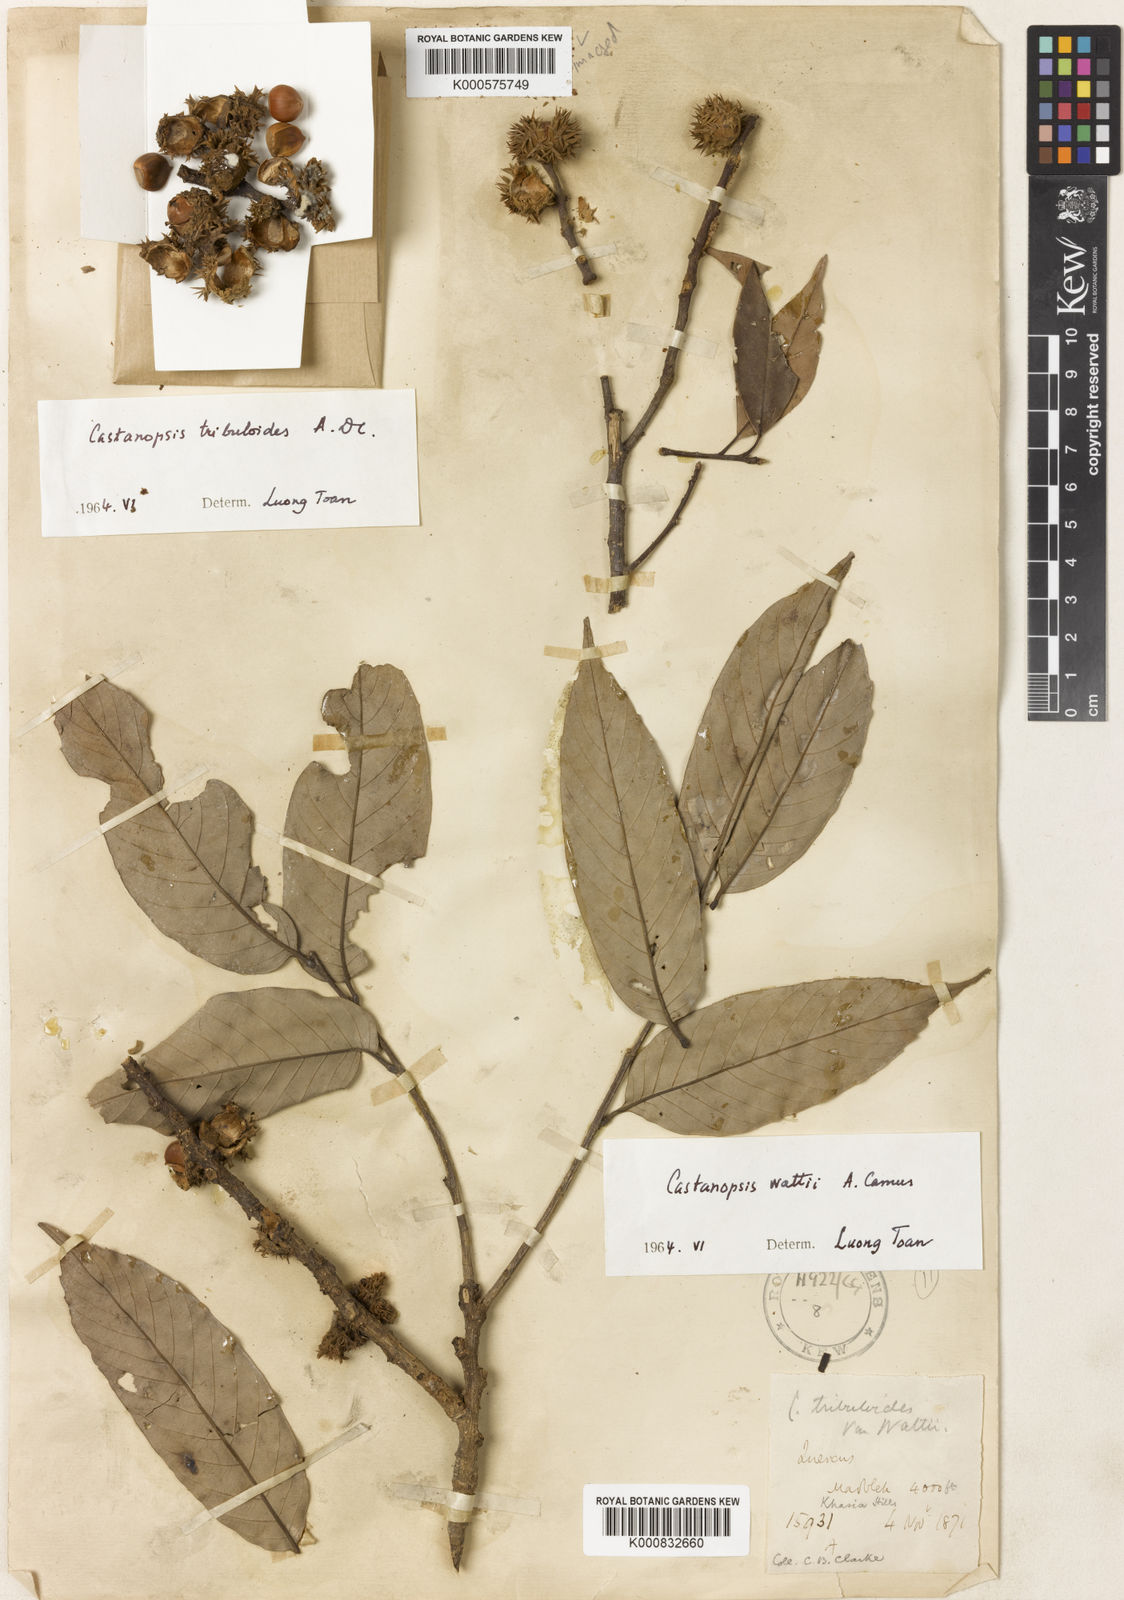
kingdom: Plantae
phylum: Tracheophyta
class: Magnoliopsida
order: Fagales
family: Fagaceae
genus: Castanopsis
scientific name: Castanopsis wattii
